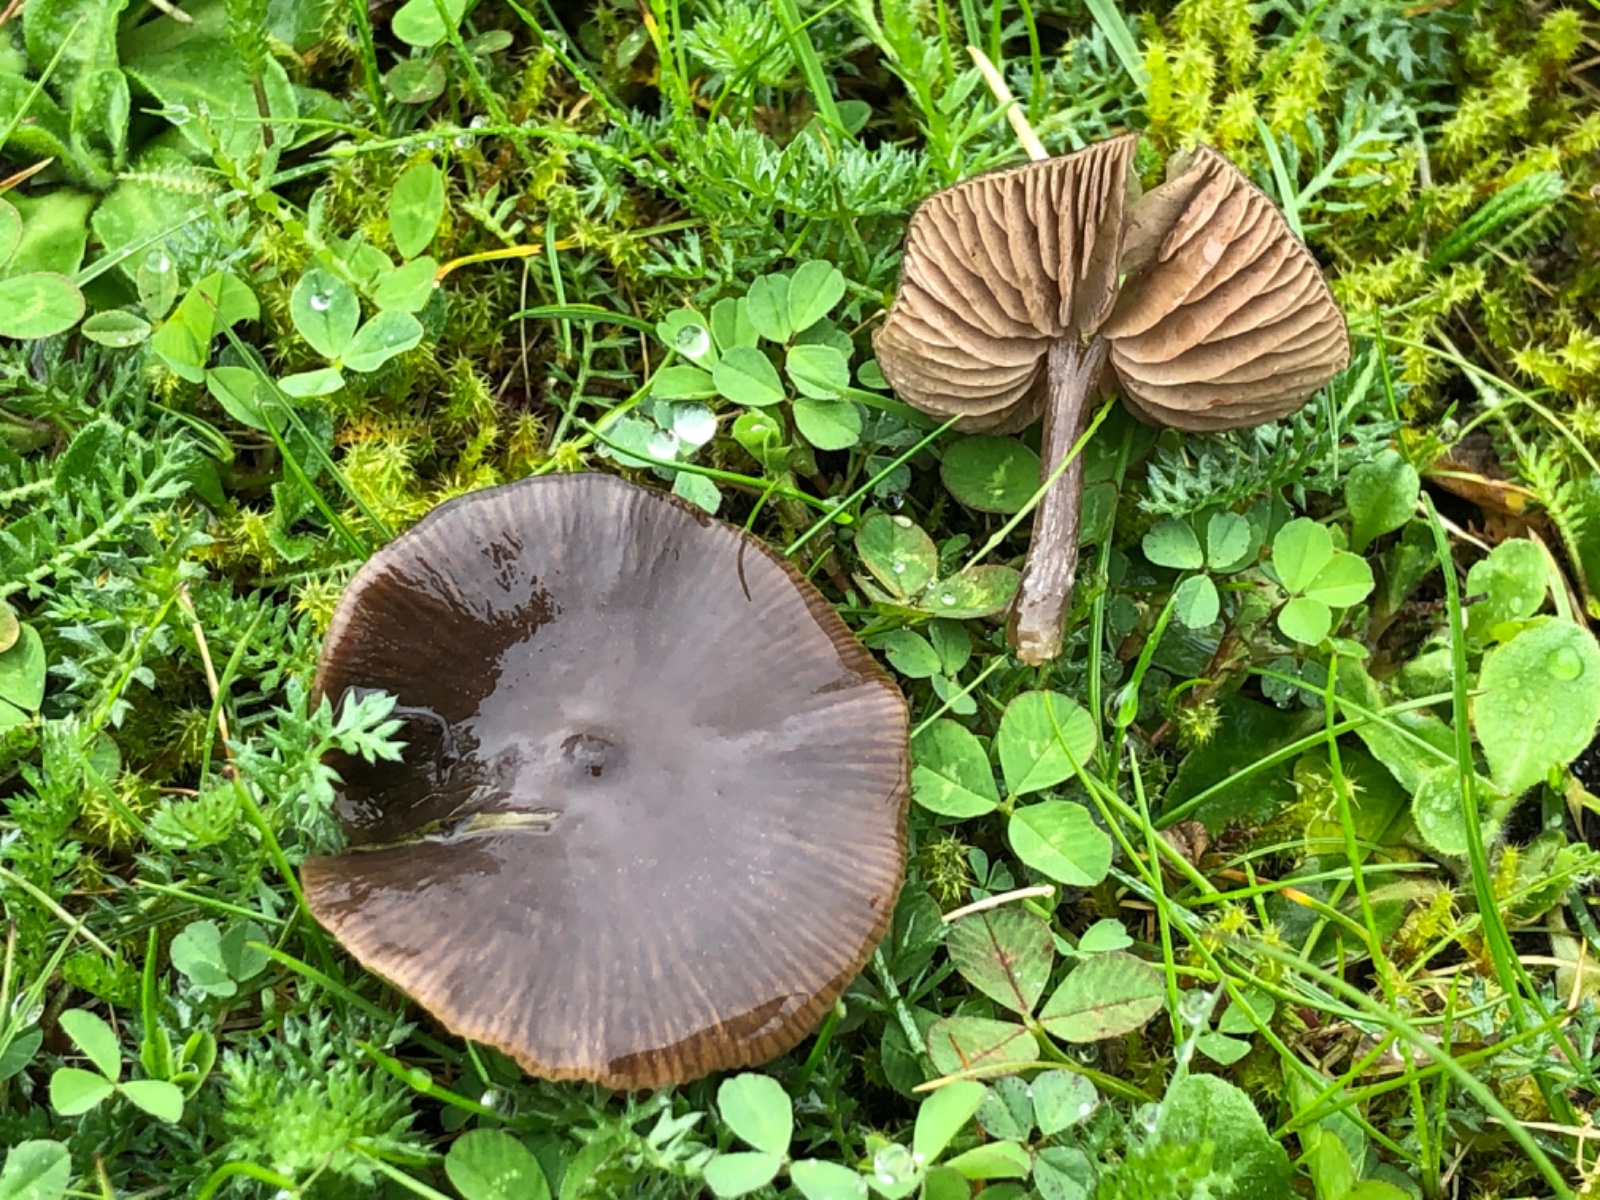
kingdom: Fungi
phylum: Basidiomycota
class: Agaricomycetes
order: Agaricales
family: Entolomataceae
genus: Entoloma
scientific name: Entoloma
